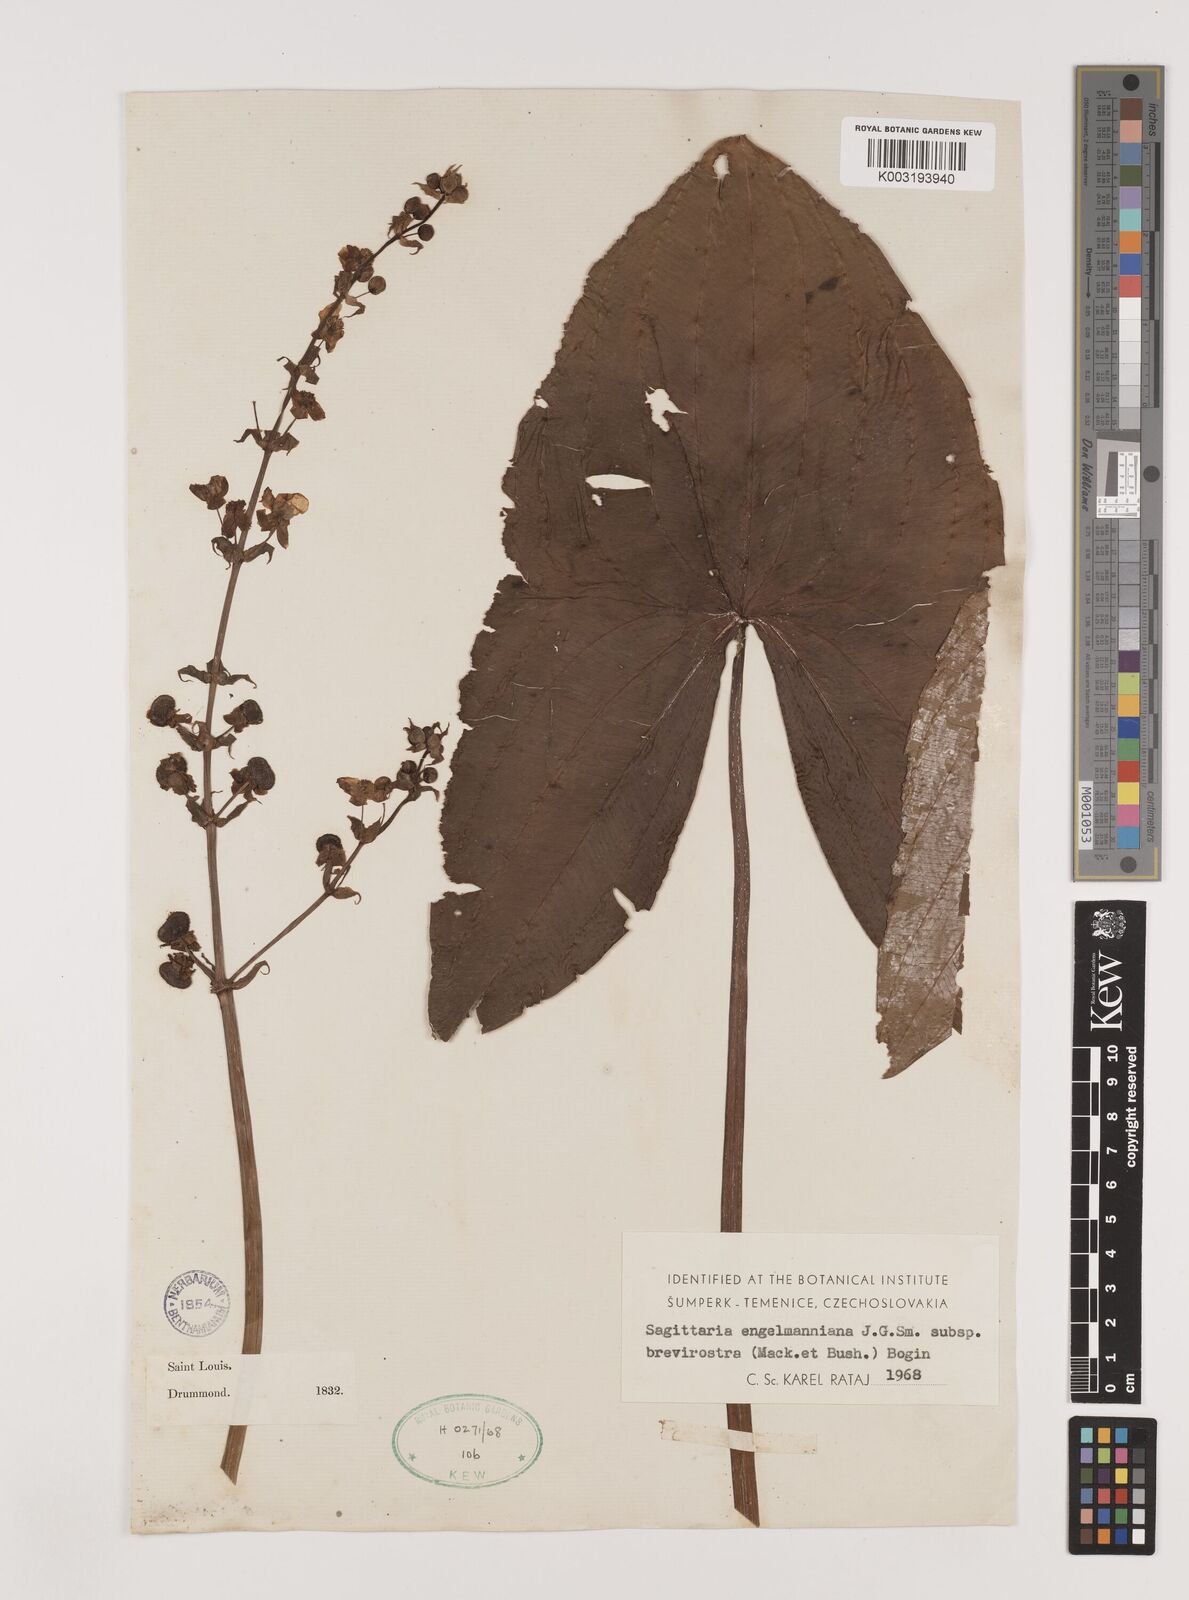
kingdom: Plantae
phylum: Tracheophyta
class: Liliopsida
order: Alismatales
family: Alismataceae
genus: Sagittaria
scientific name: Sagittaria brevirostra
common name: Midwestern arrowhead
